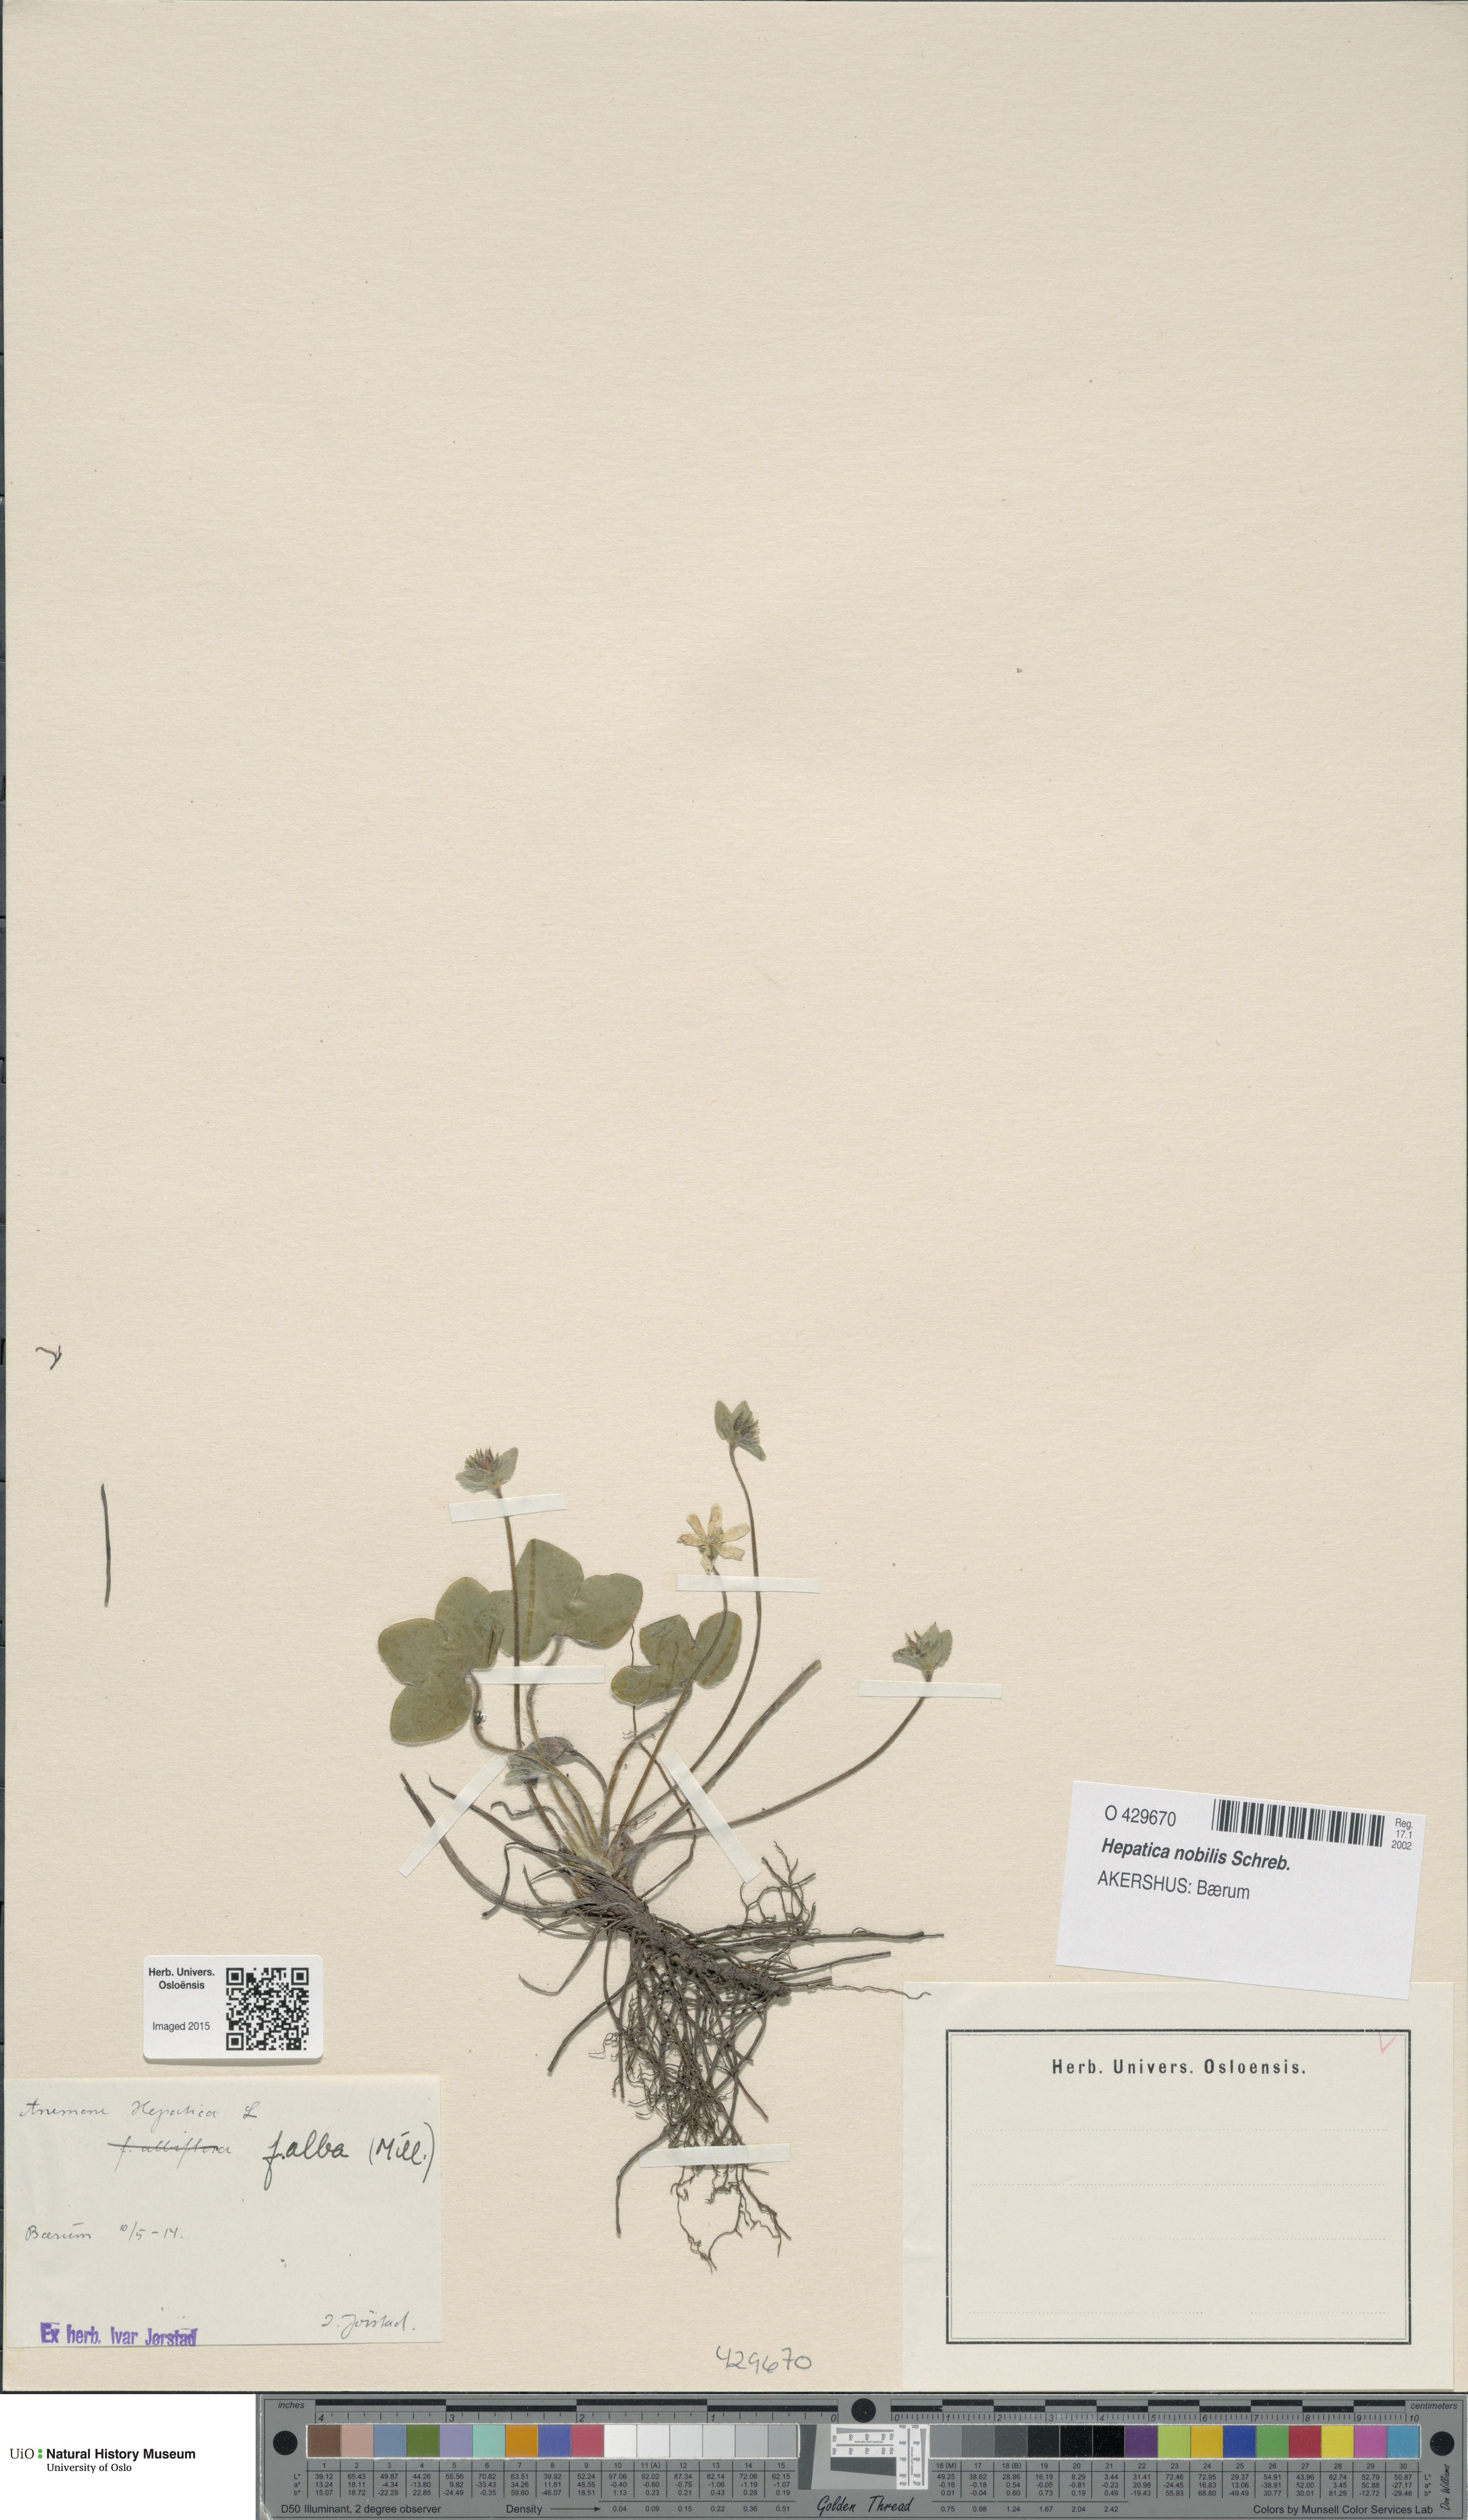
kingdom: Plantae
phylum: Tracheophyta
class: Magnoliopsida
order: Ranunculales
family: Ranunculaceae
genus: Hepatica
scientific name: Hepatica nobilis
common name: Liverleaf
